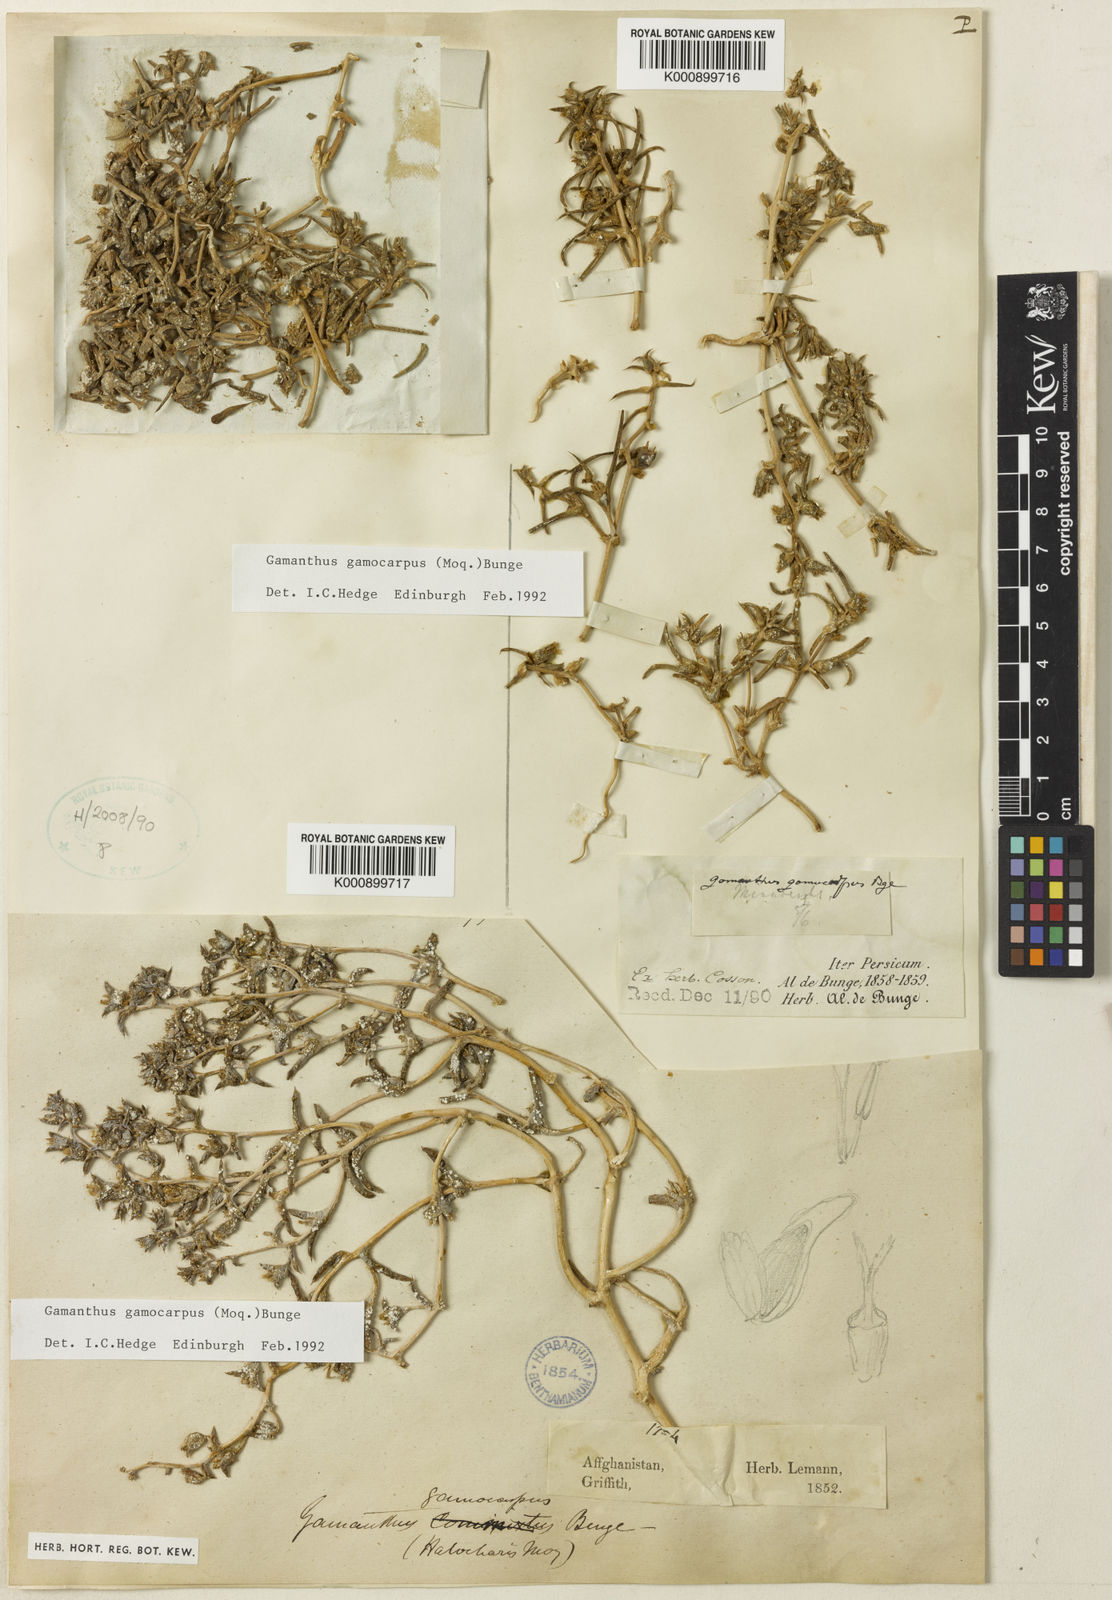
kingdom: Plantae
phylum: Tracheophyta
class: Magnoliopsida
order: Caryophyllales
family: Amaranthaceae
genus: Halimocnemis
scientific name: Halimocnemis
